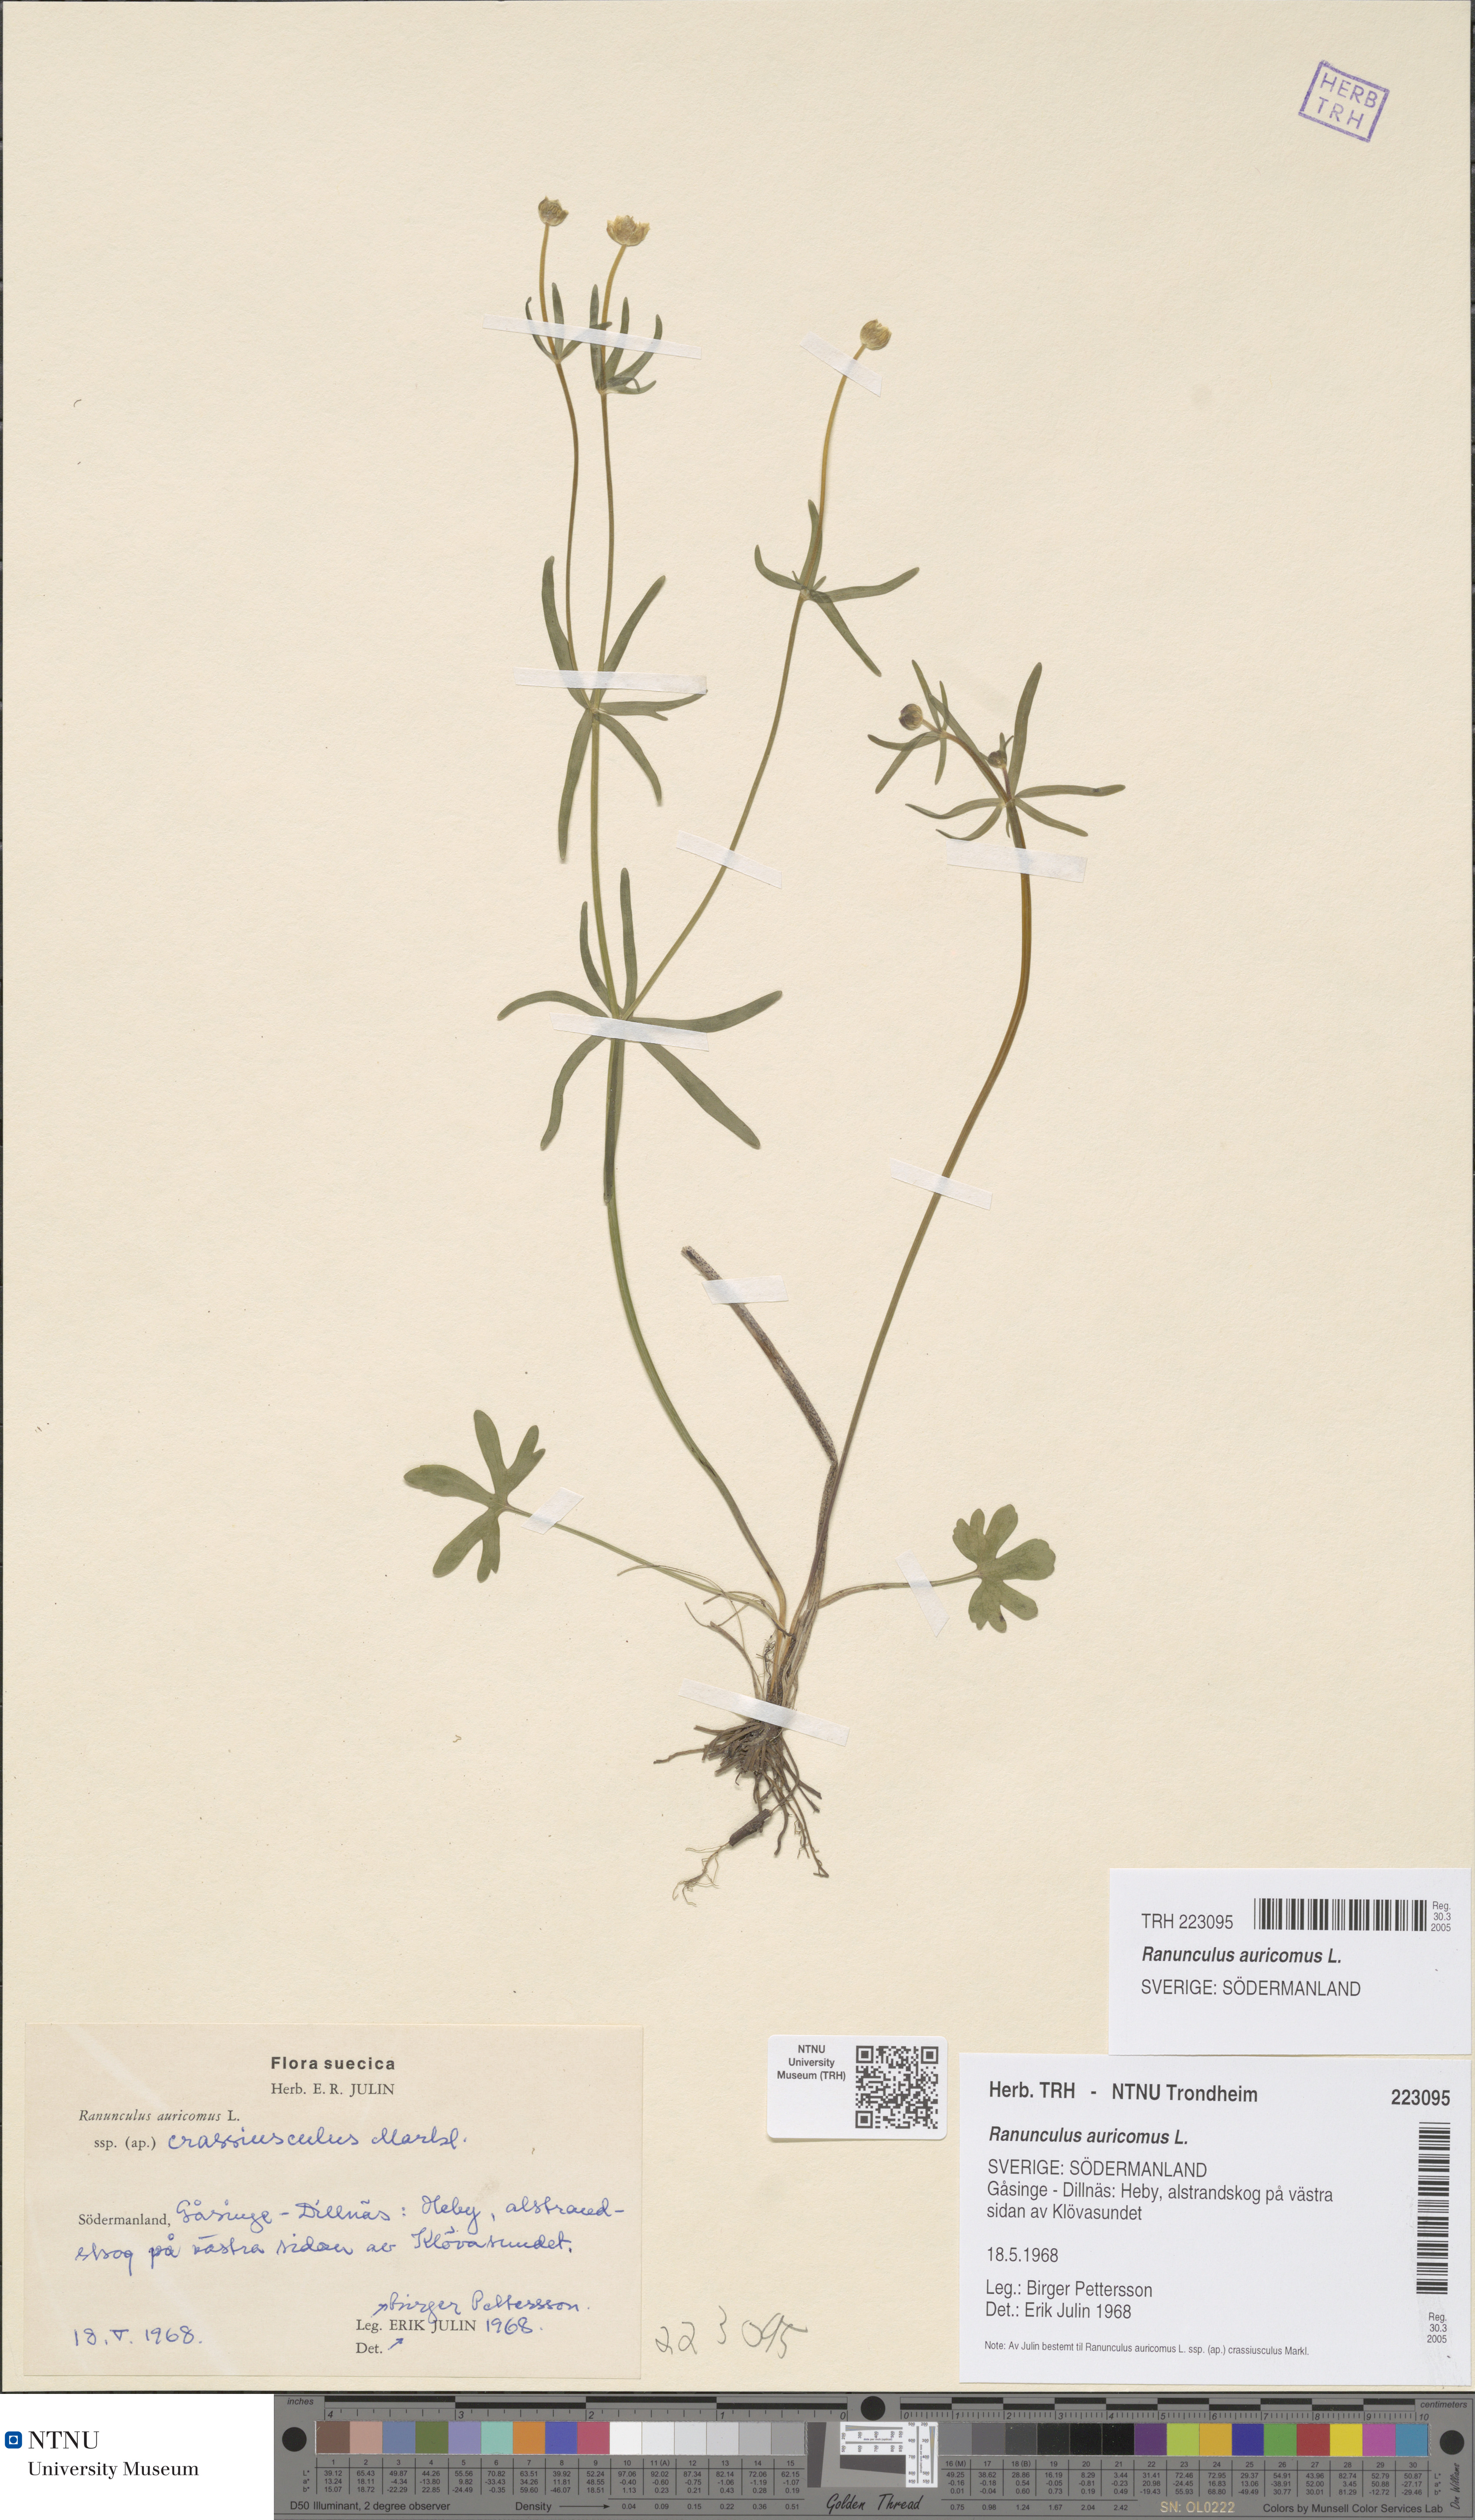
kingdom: Plantae
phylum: Tracheophyta
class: Magnoliopsida
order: Ranunculales
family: Ranunculaceae
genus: Ranunculus
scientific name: Ranunculus auricomus
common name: Goldilocks buttercup
